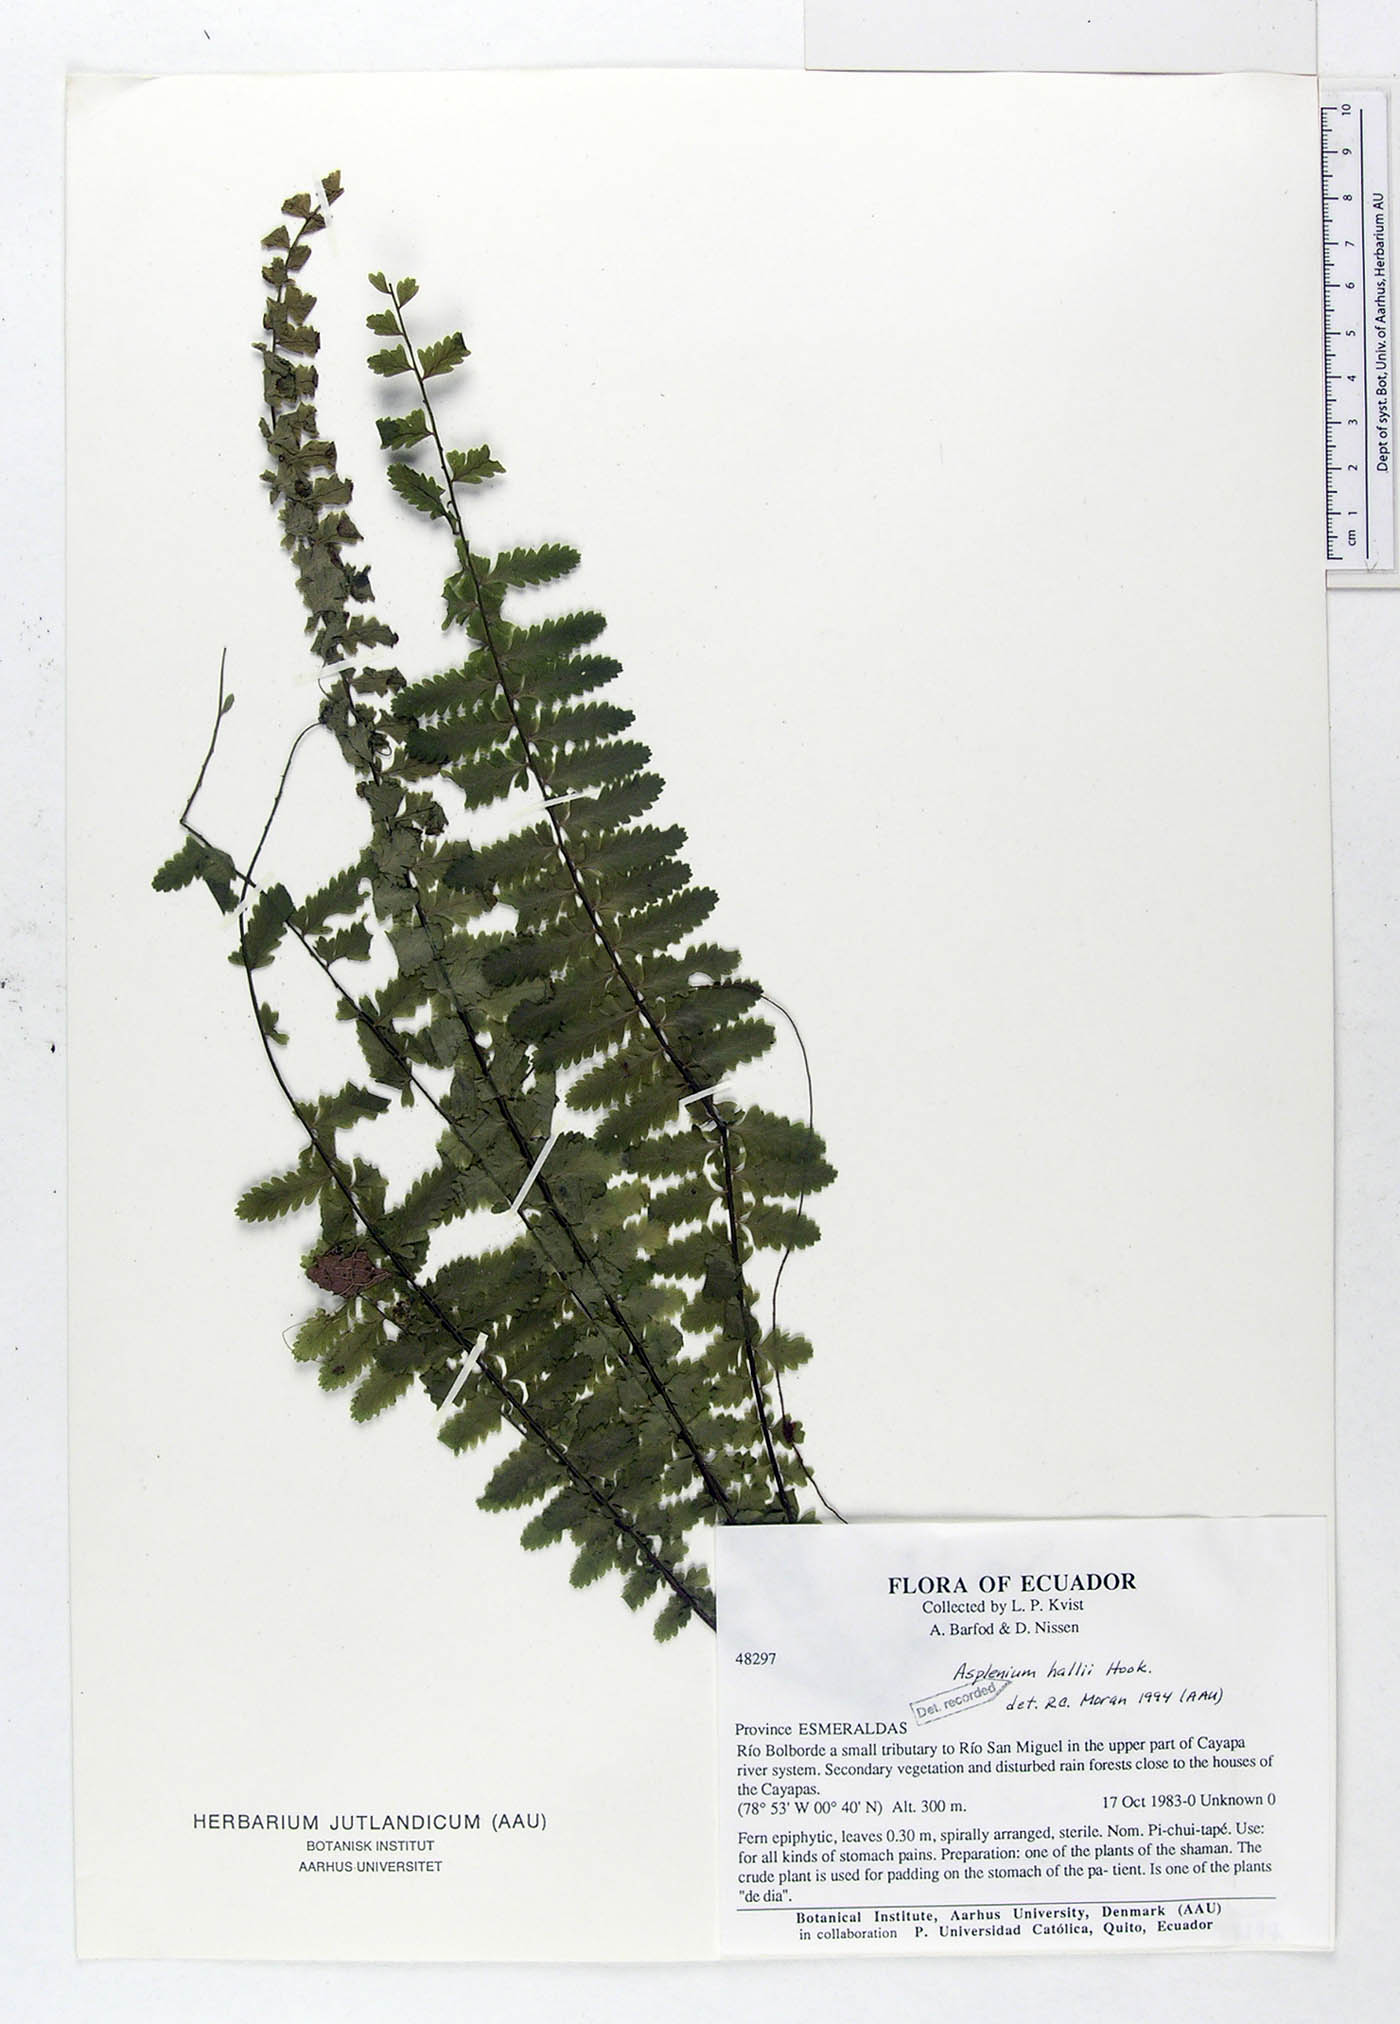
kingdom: Plantae
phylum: Tracheophyta
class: Polypodiopsida
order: Polypodiales
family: Aspleniaceae
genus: Asplenium
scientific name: Asplenium hallii
